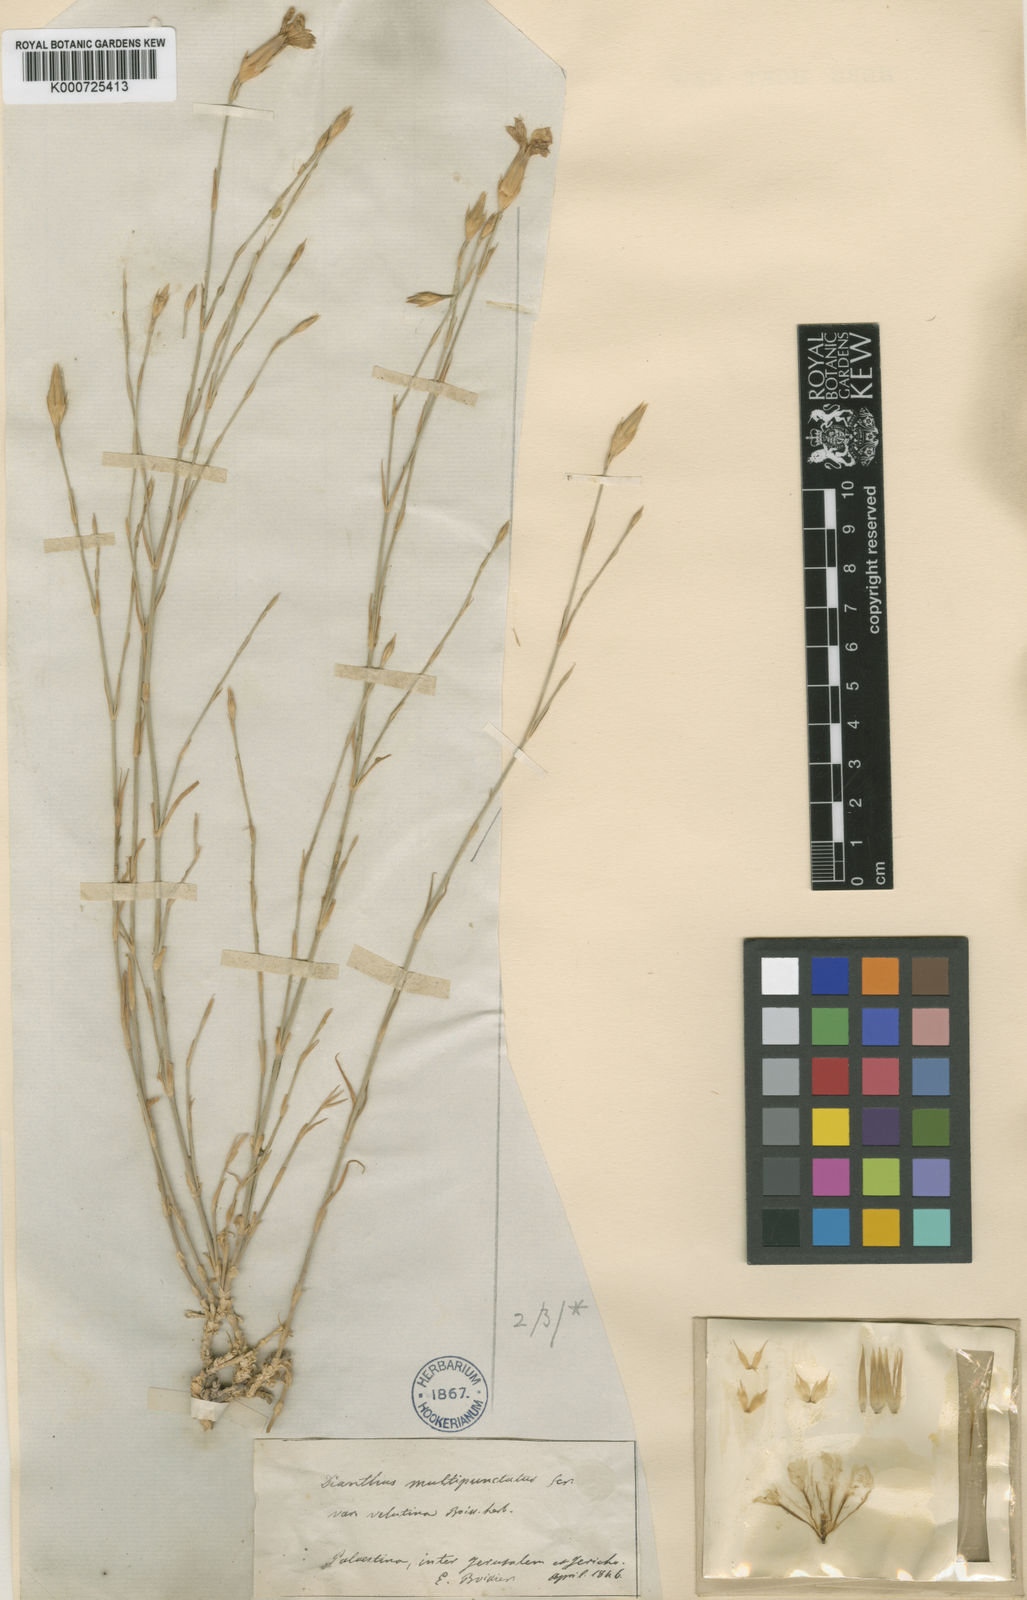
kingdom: Plantae
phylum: Tracheophyta
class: Magnoliopsida
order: Caryophyllales
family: Caryophyllaceae
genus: Dianthus
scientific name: Dianthus strictus
